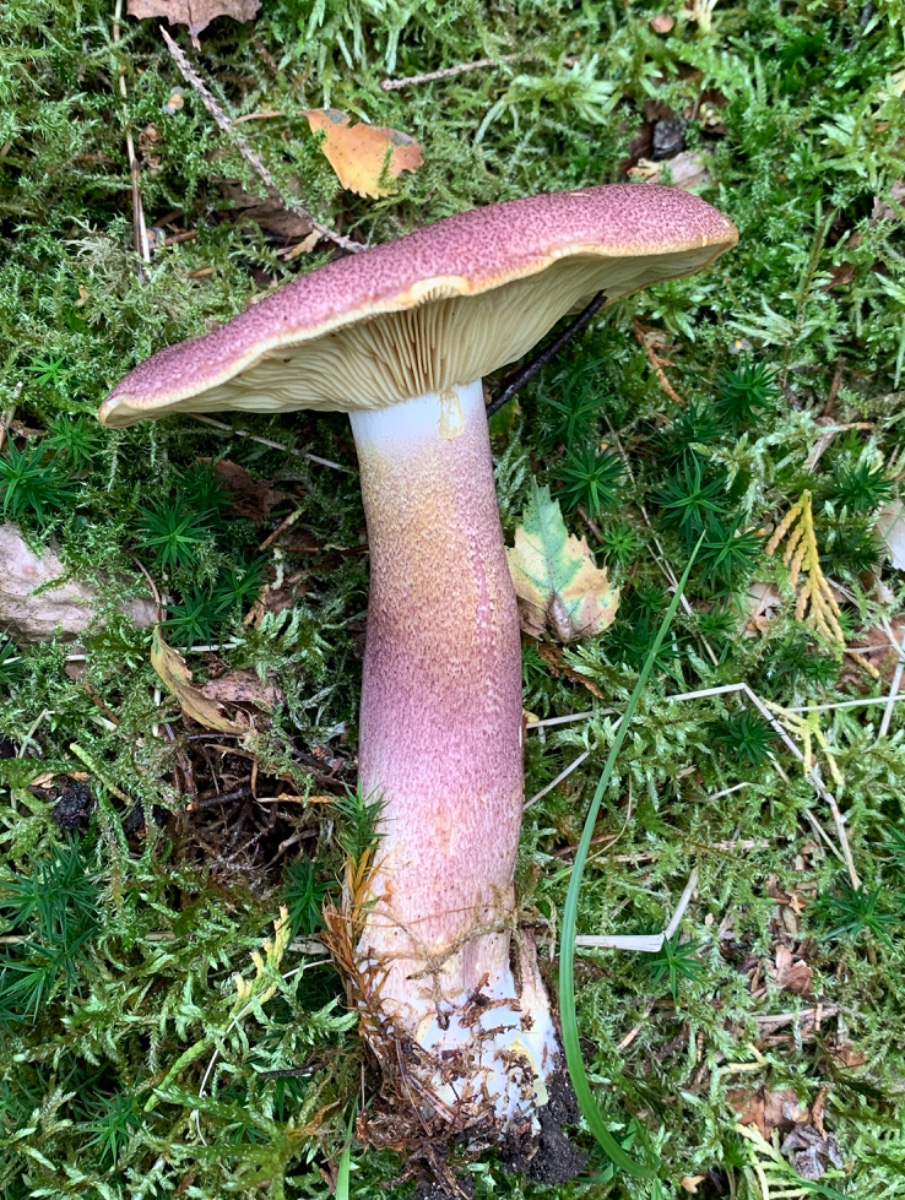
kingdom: Fungi
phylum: Basidiomycota
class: Agaricomycetes
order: Agaricales
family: Tricholomataceae
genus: Tricholomopsis
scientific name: Tricholomopsis rutilans
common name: purpur-væbnerhat
